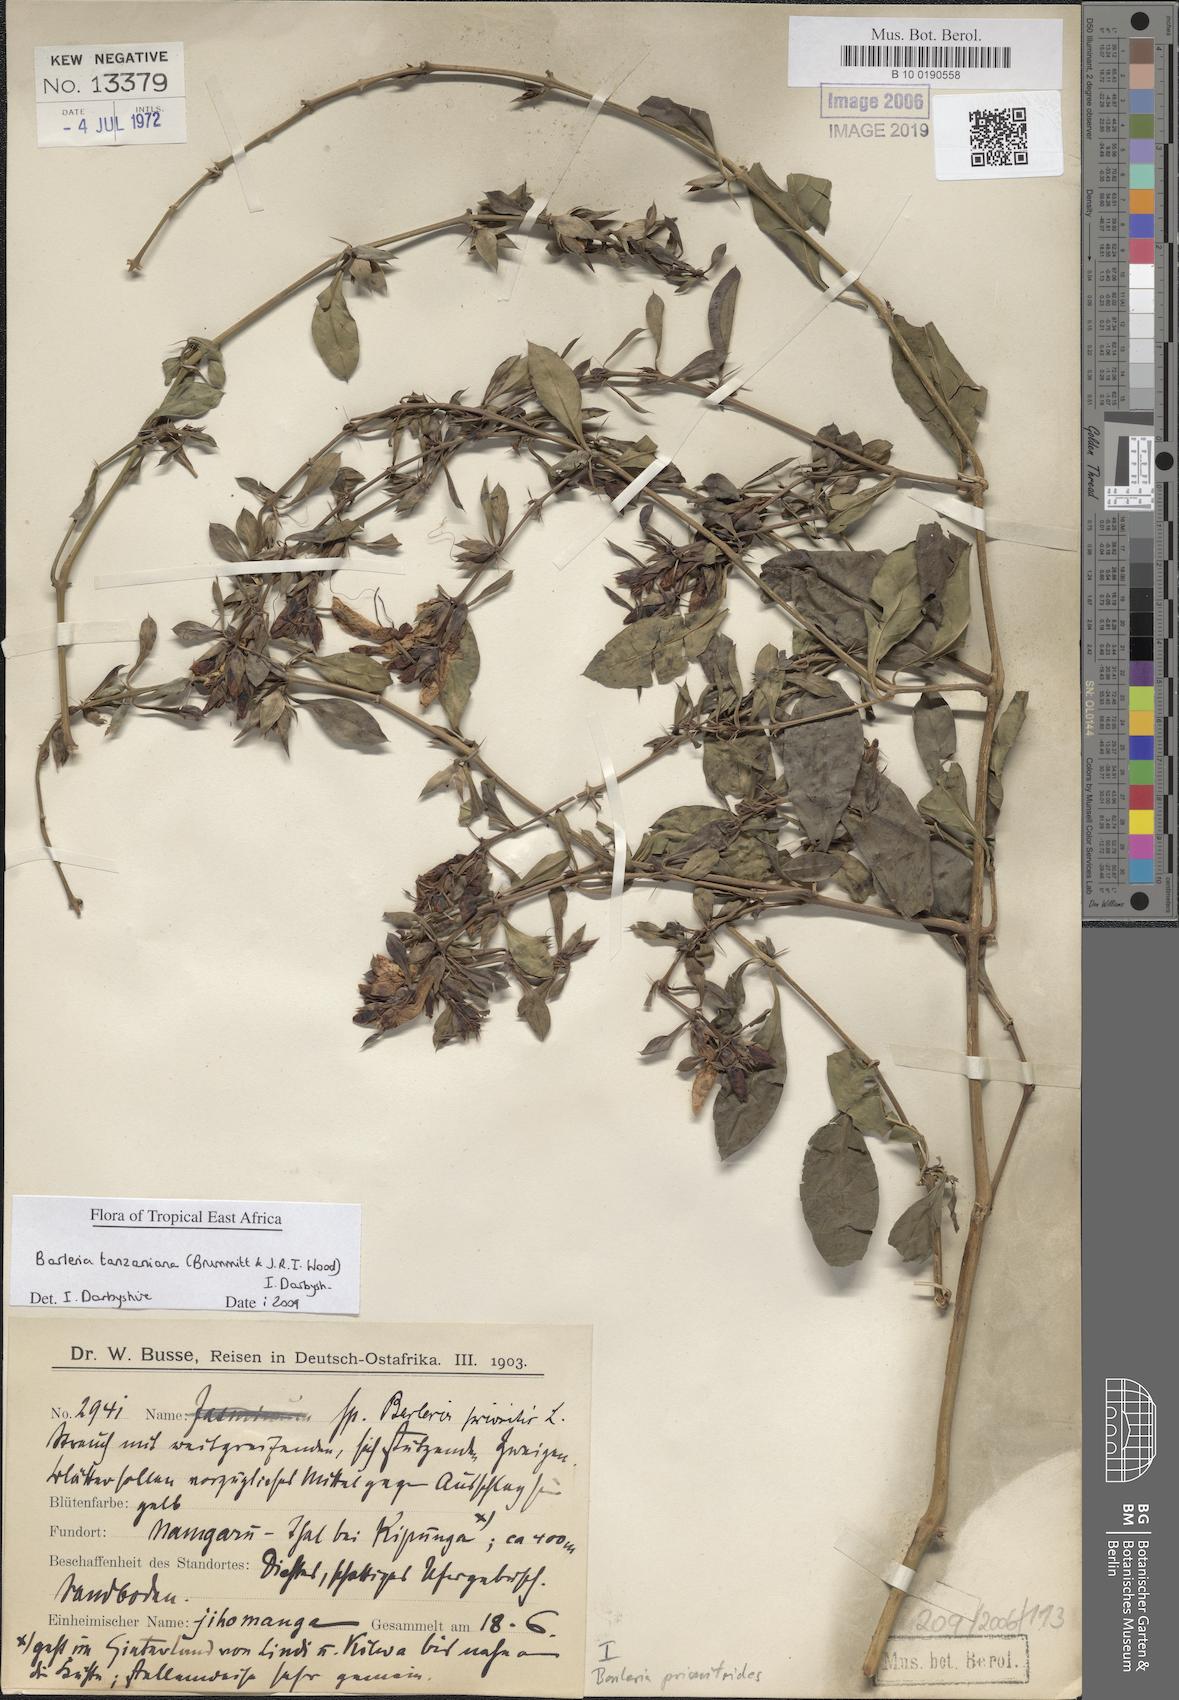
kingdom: Plantae
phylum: Tracheophyta
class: Magnoliopsida
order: Lamiales
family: Acanthaceae
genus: Barleria
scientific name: Barleria prionitis
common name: Barleria
